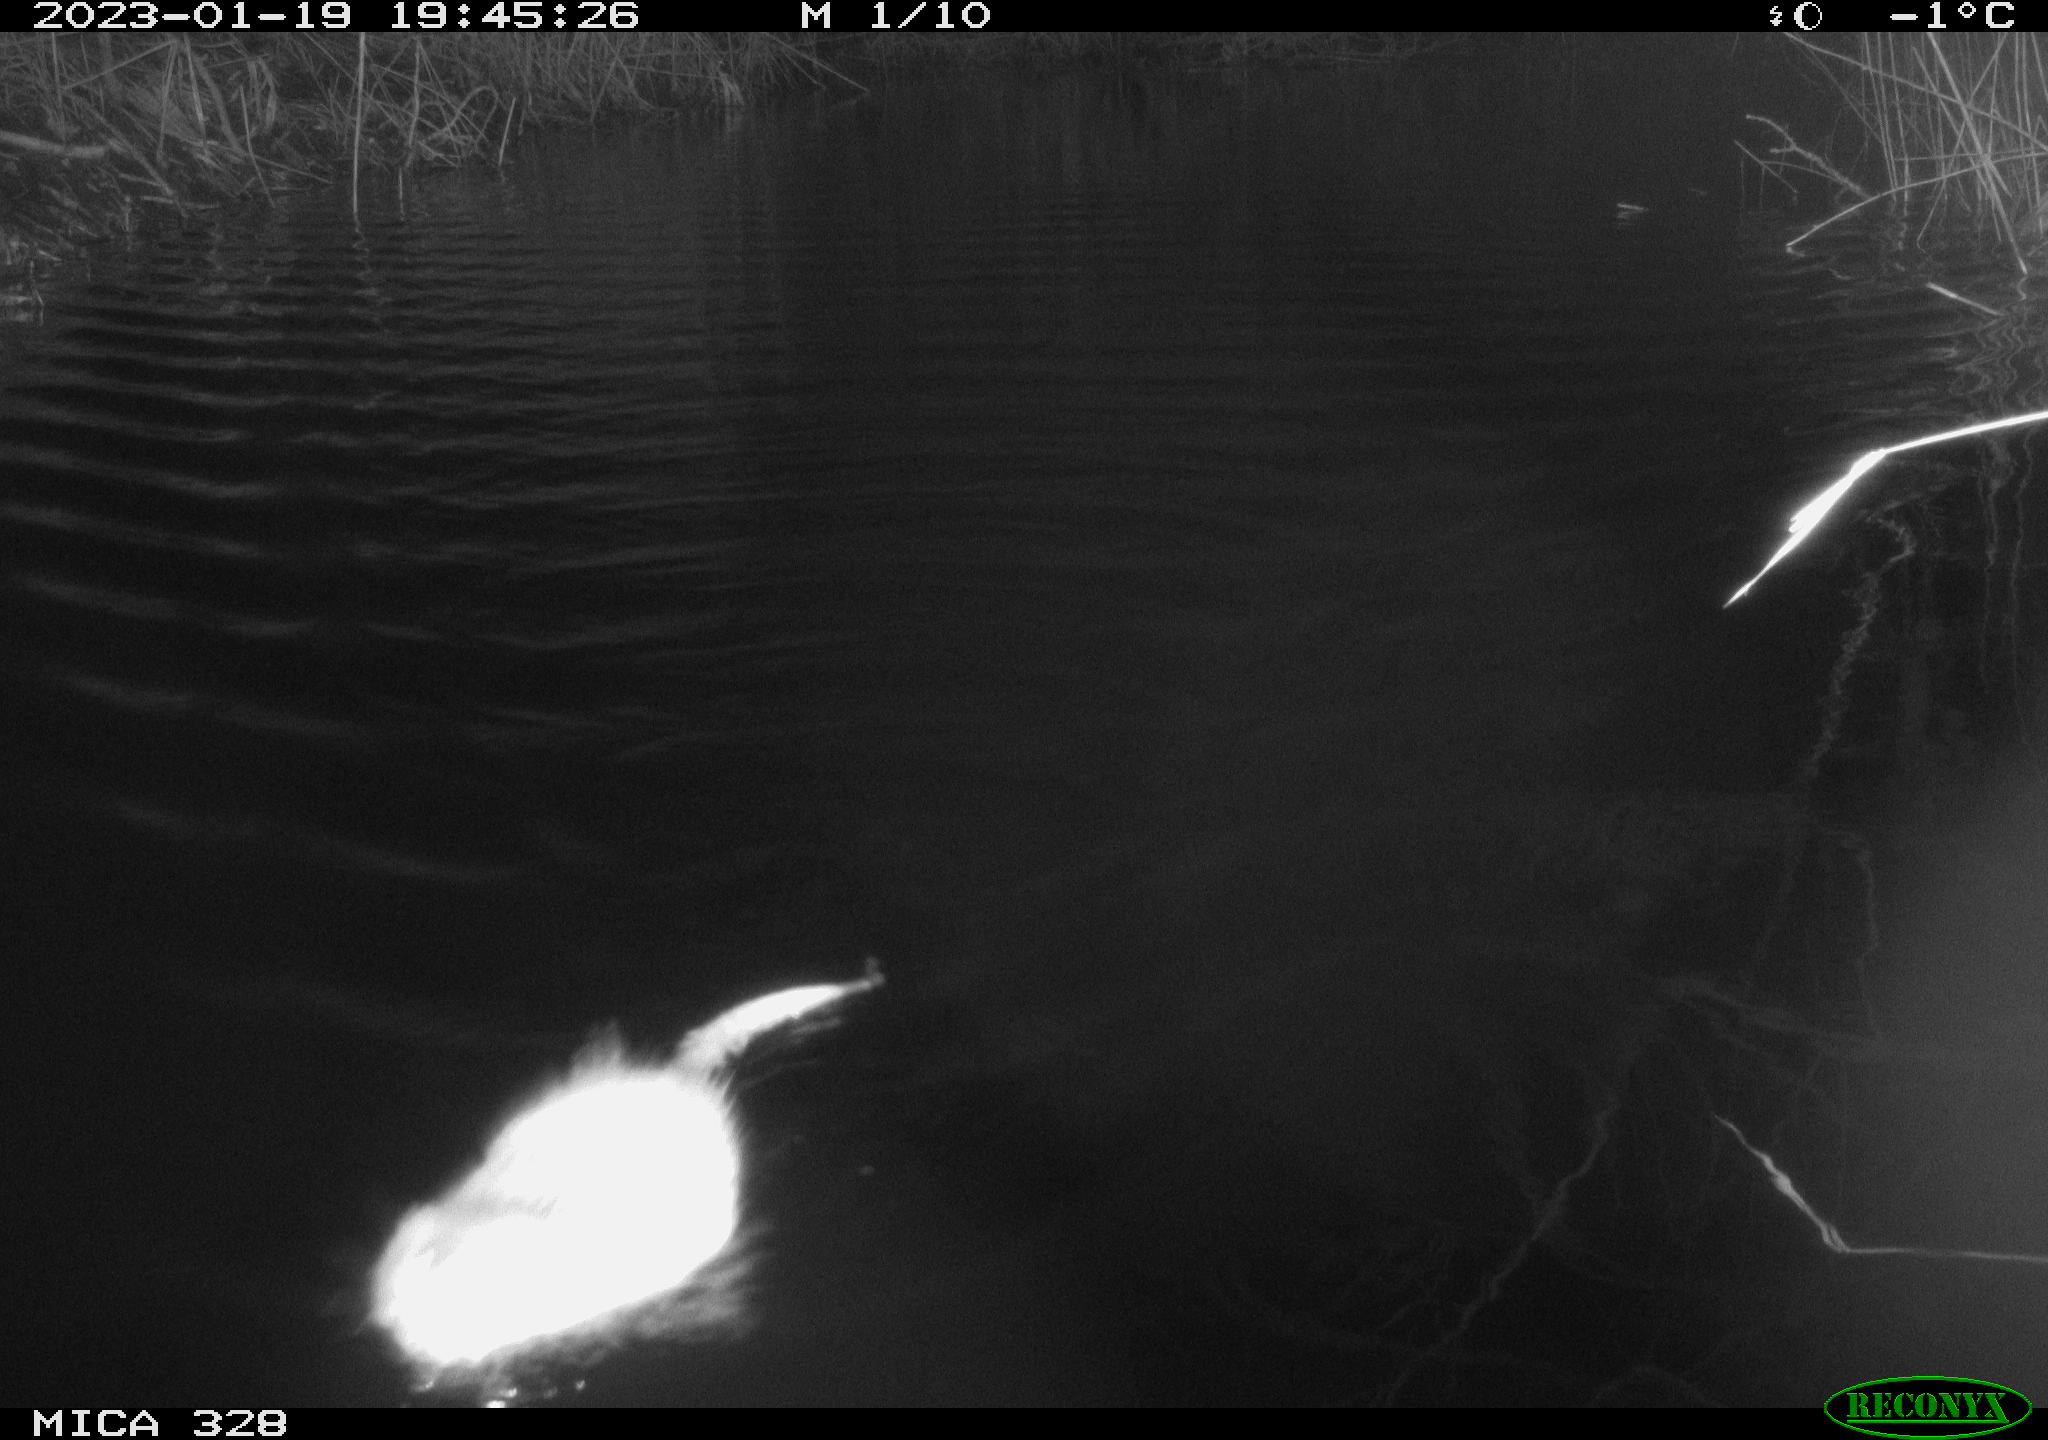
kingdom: Animalia
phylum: Chordata
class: Mammalia
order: Rodentia
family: Cricetidae
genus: Ondatra
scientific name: Ondatra zibethicus
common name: Muskrat
